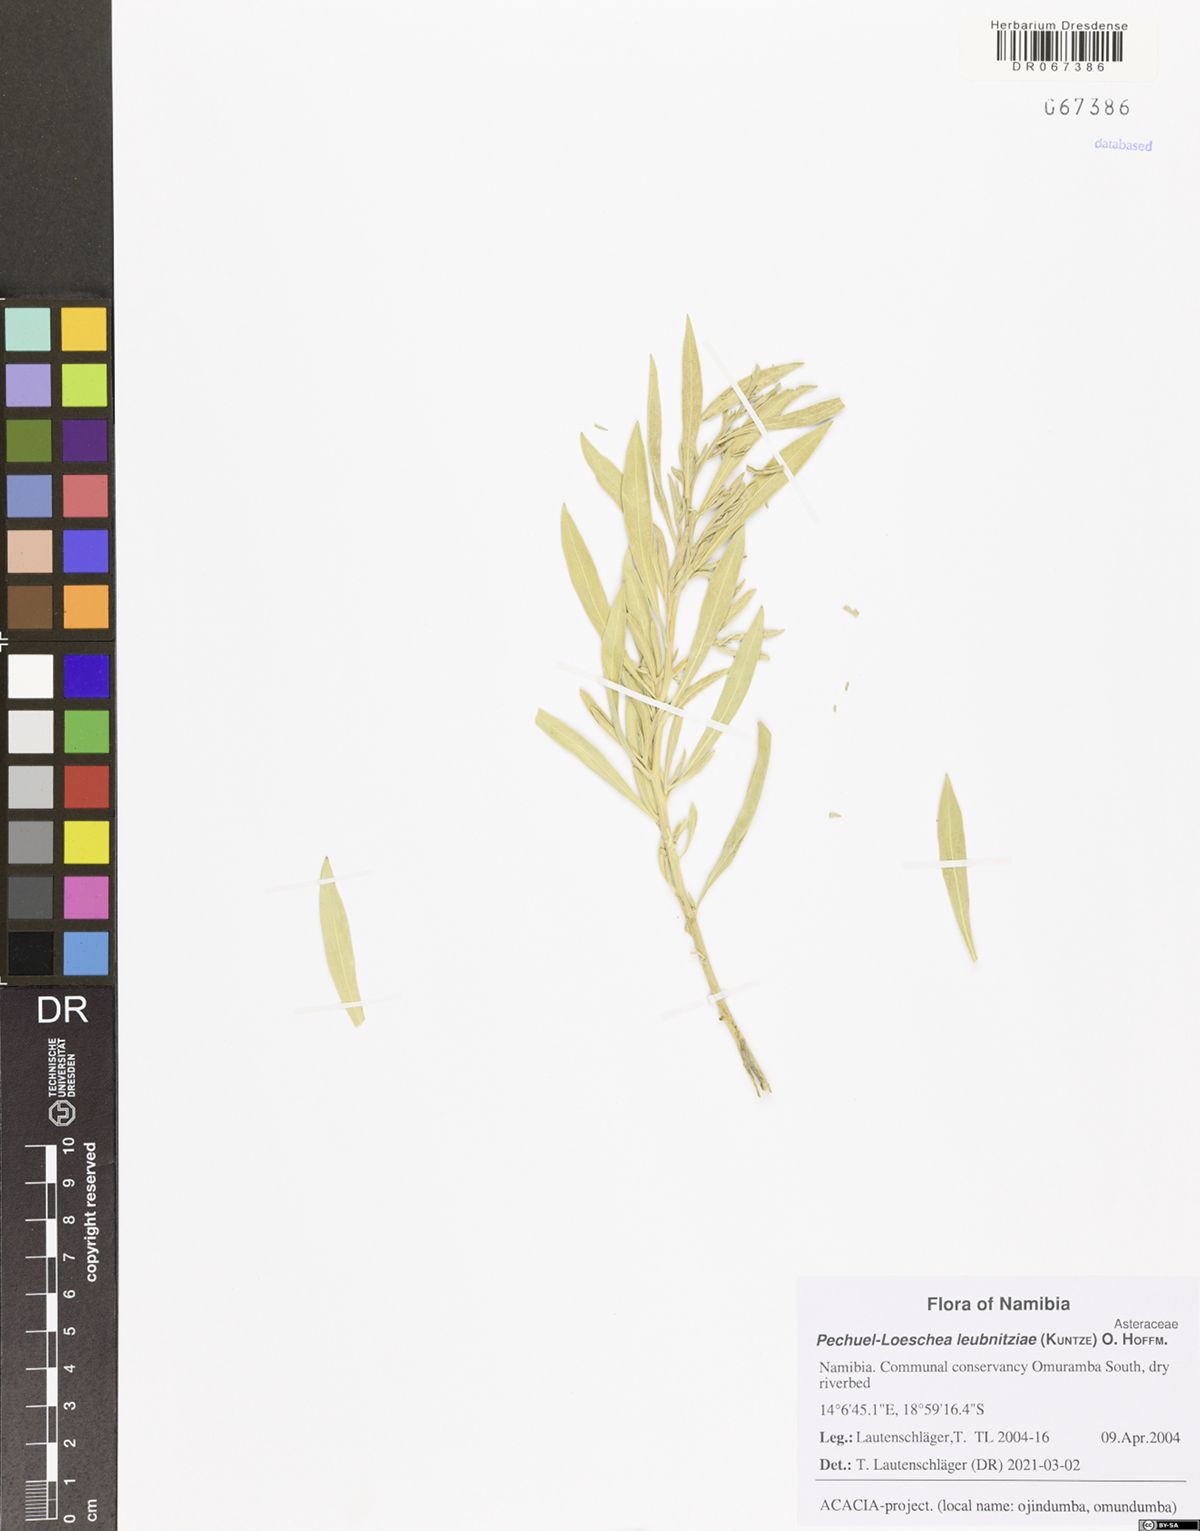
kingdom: Plantae
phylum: Tracheophyta
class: Magnoliopsida
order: Asterales
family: Asteraceae
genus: Pechuel-loeschea
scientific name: Pechuel-loeschea leubnitziae
